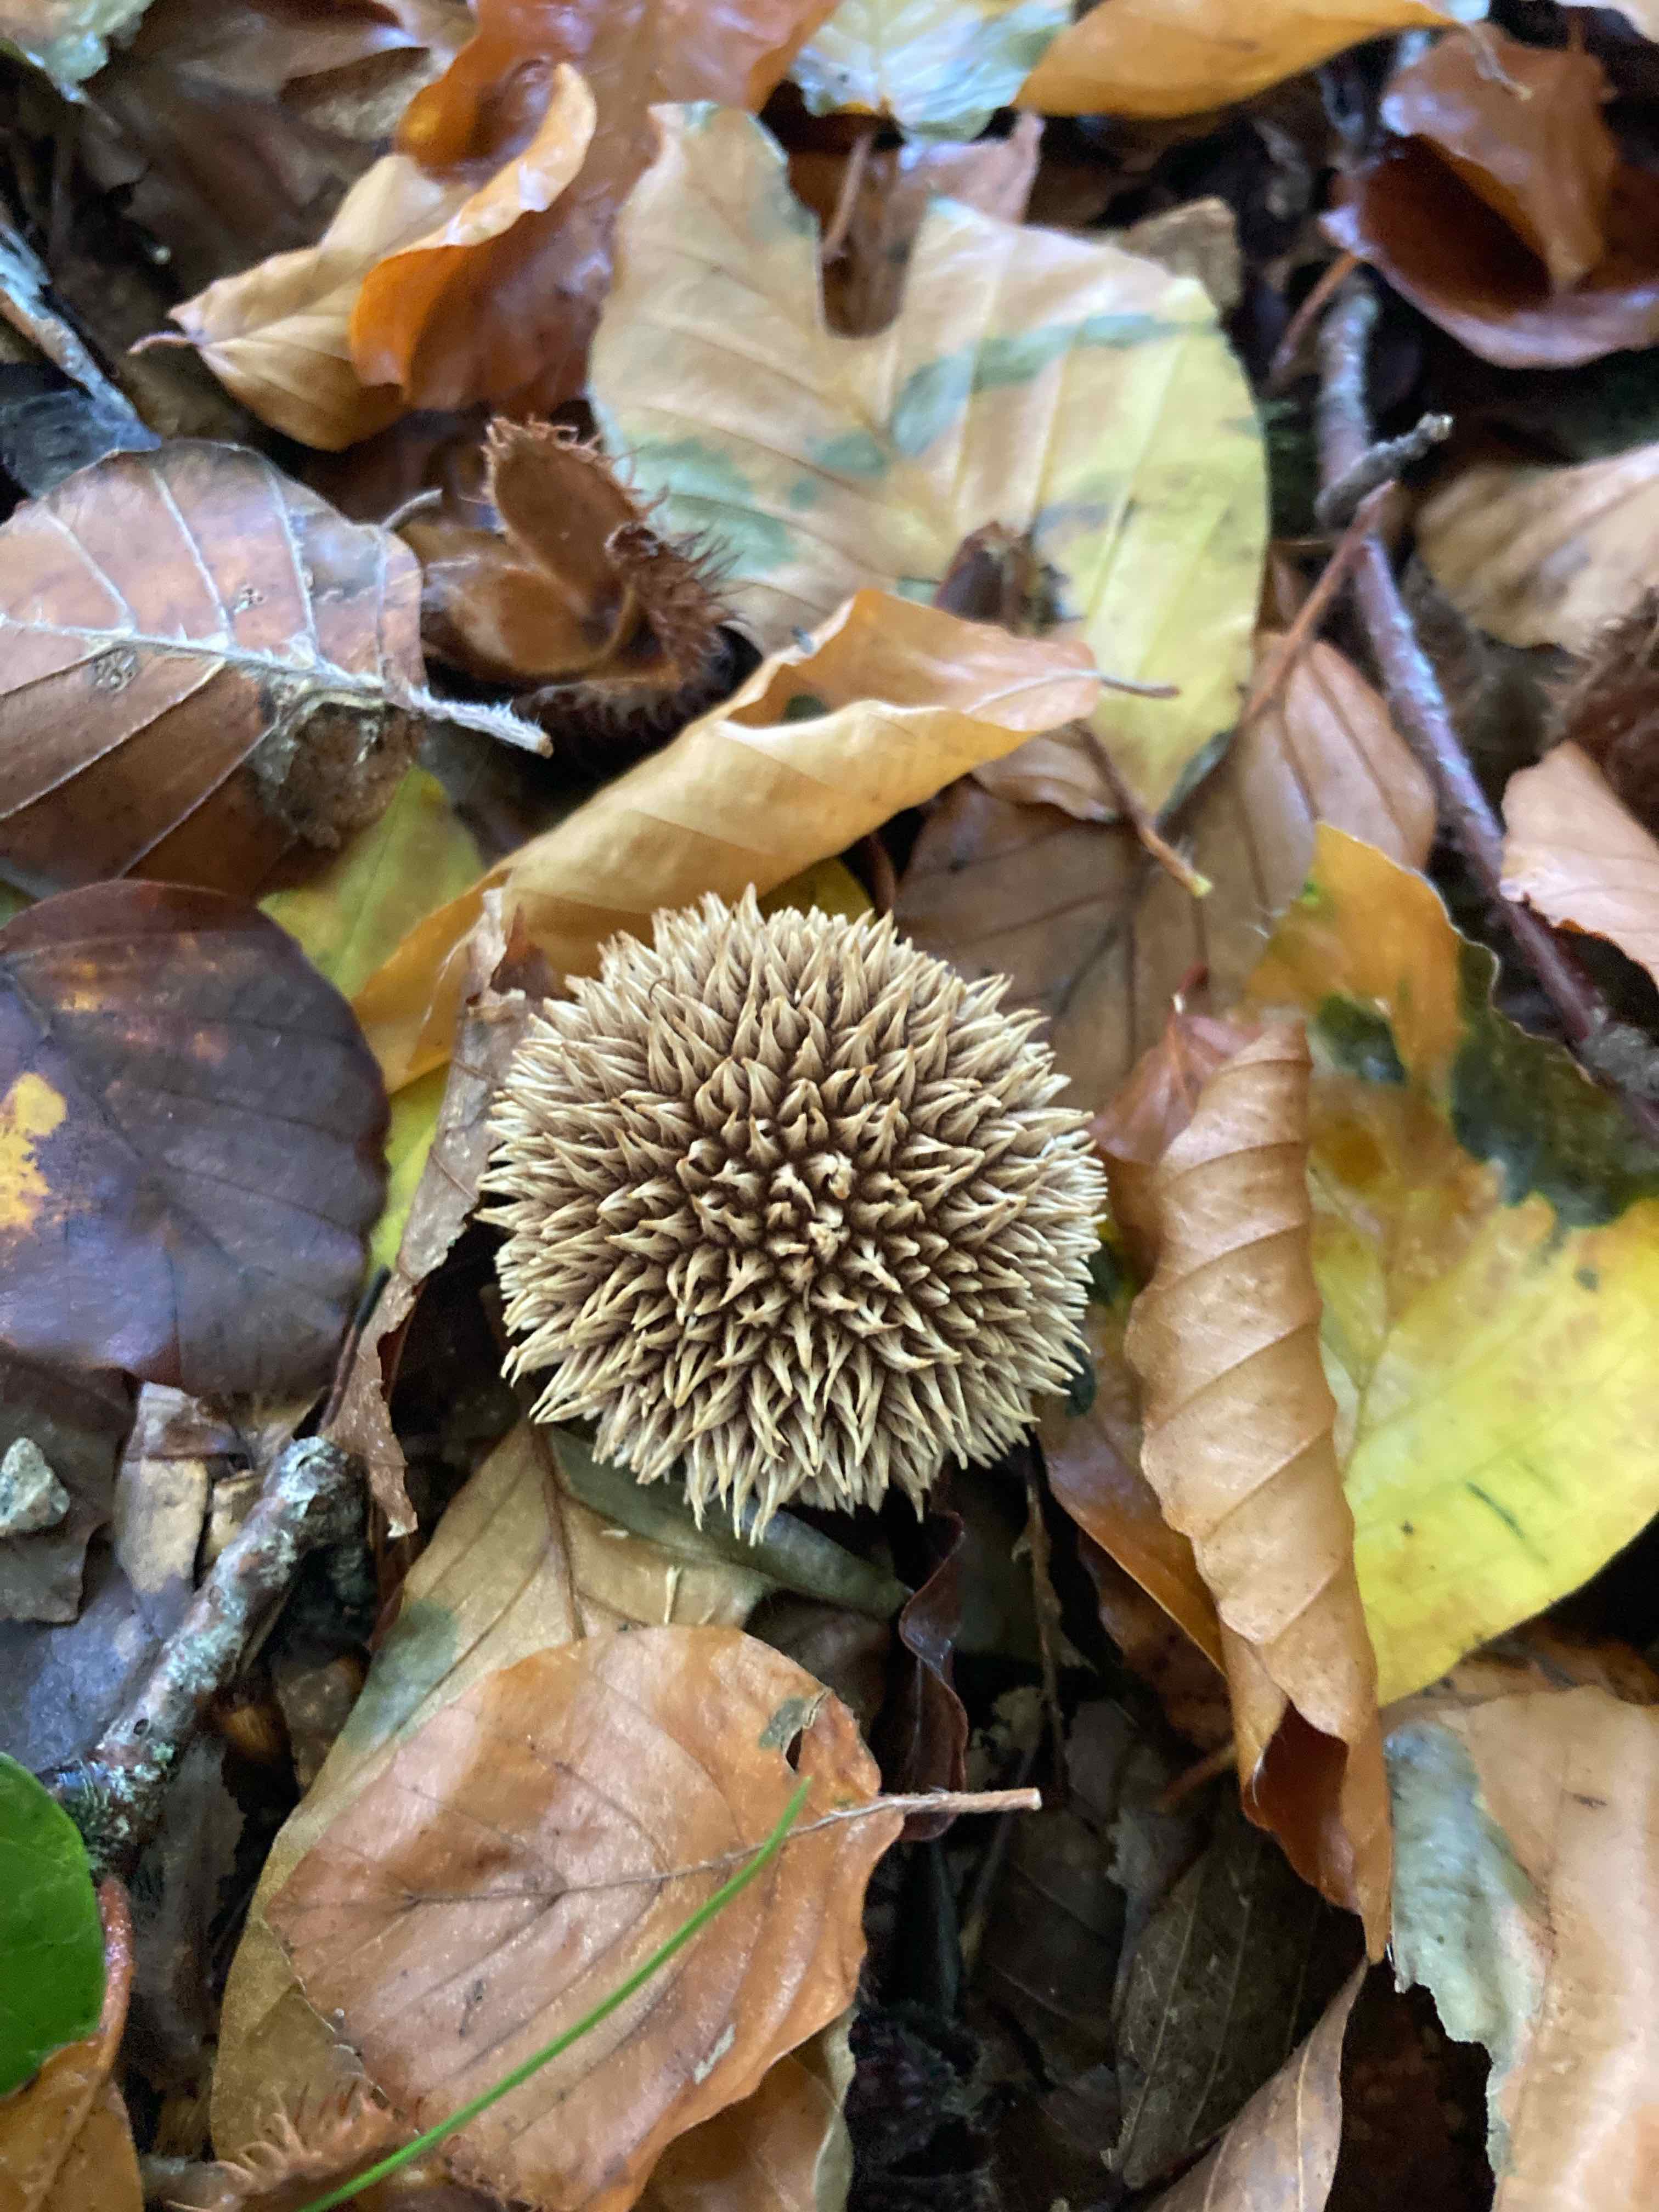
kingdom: Fungi
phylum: Basidiomycota
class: Agaricomycetes
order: Agaricales
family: Lycoperdaceae
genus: Lycoperdon
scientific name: Lycoperdon echinatum
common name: pindsvine-støvbold
